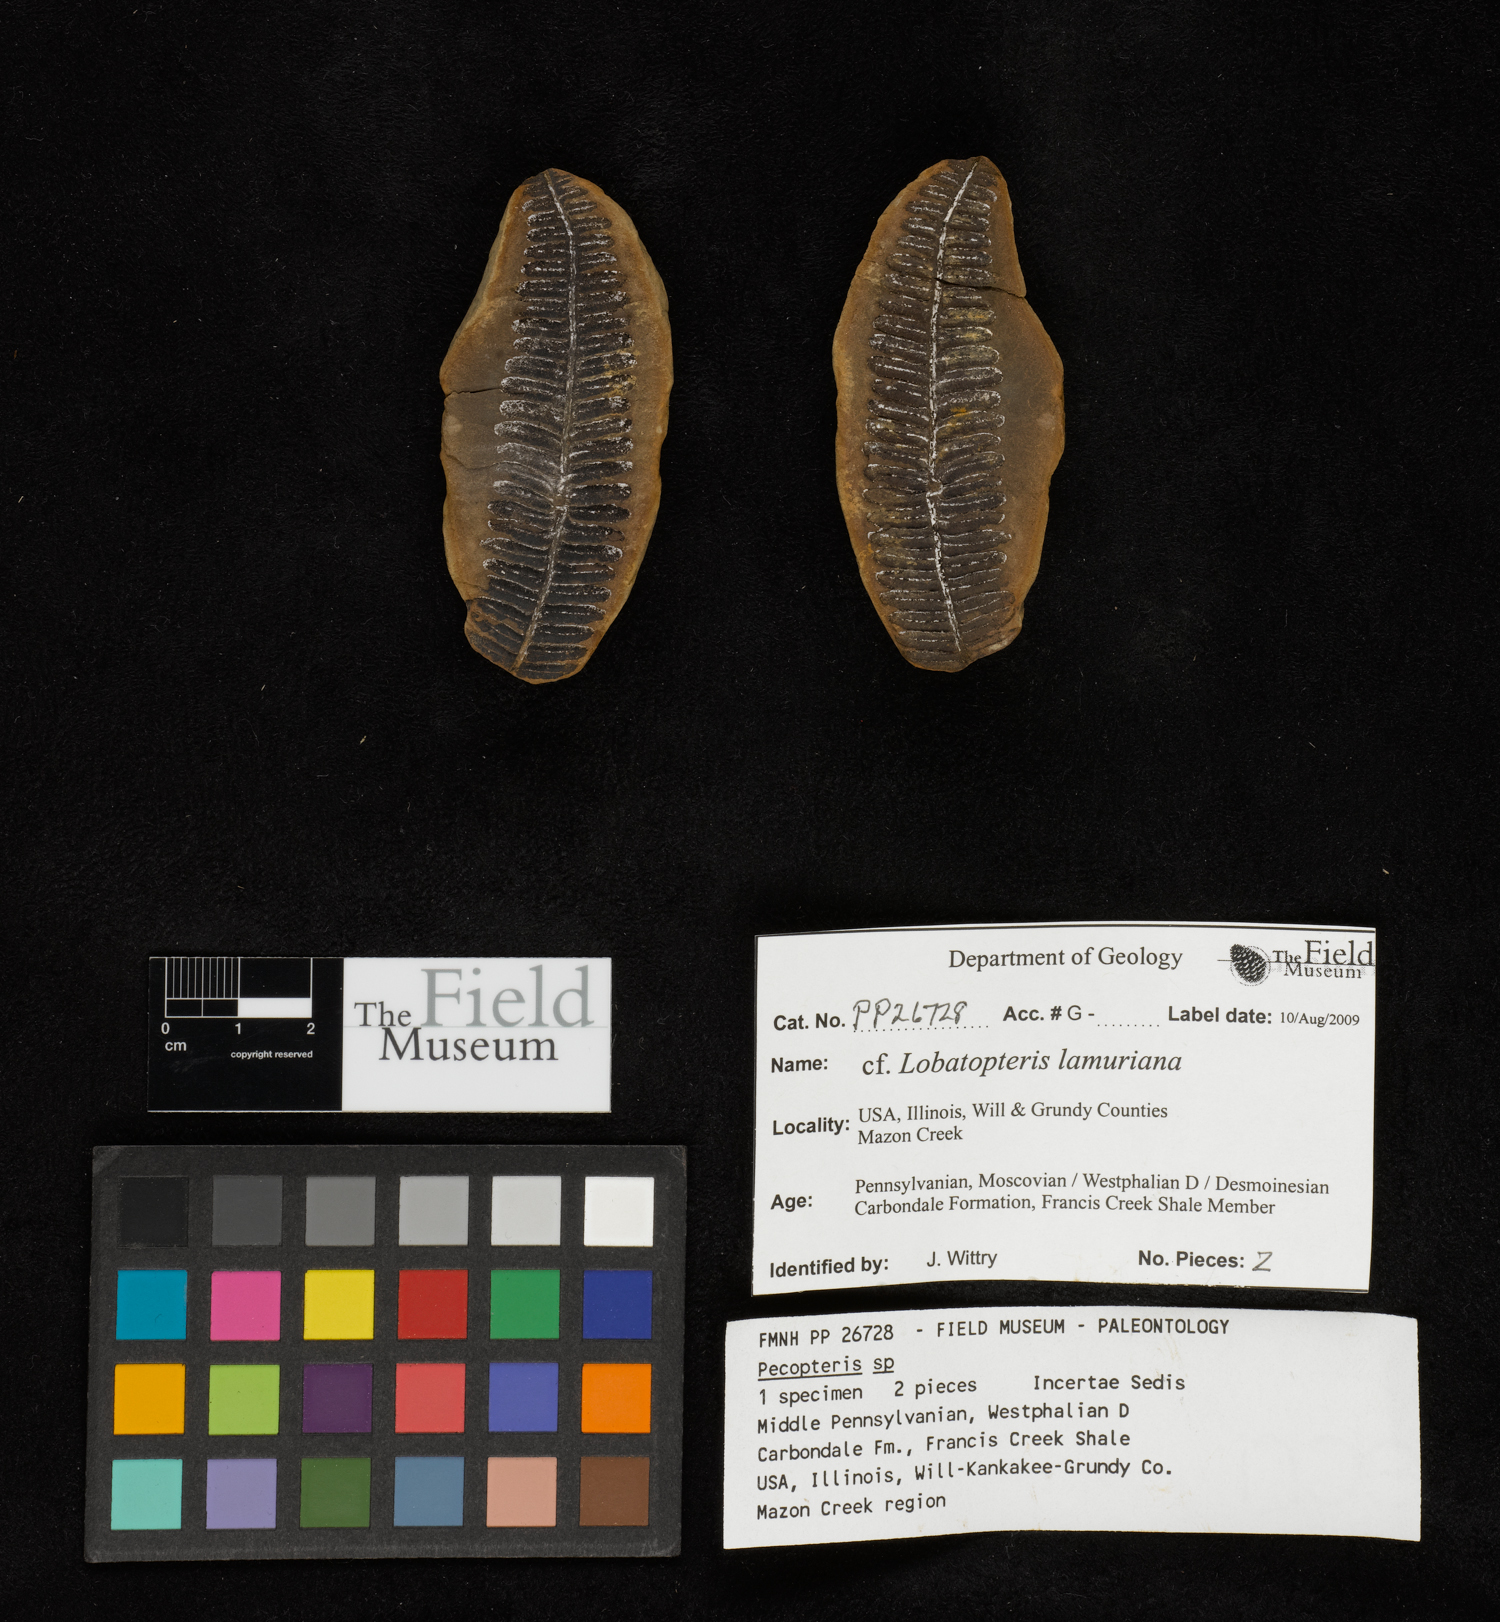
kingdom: Plantae
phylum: Tracheophyta
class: Polypodiopsida
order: Marattiales
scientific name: Marattiales
